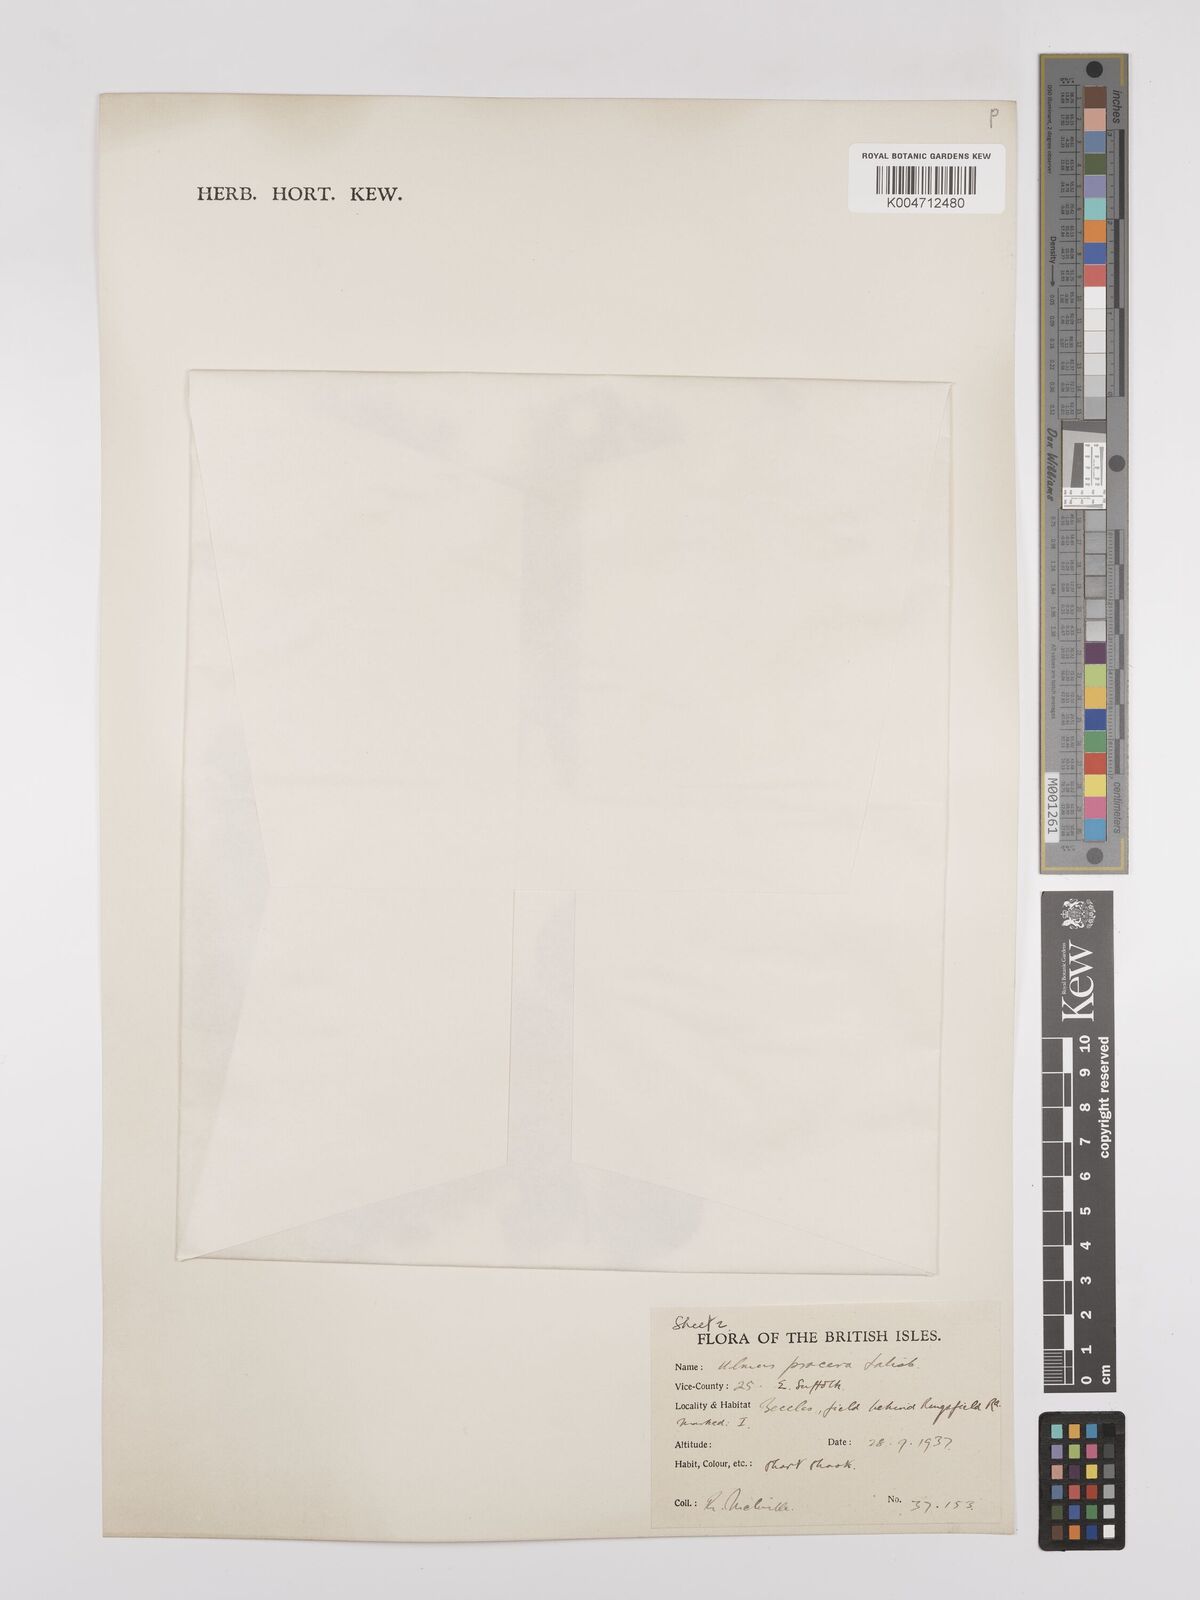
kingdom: Plantae
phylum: Tracheophyta
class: Magnoliopsida
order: Rosales
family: Ulmaceae
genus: Ulmus
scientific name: Ulmus minor
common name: Small-leaved elm
